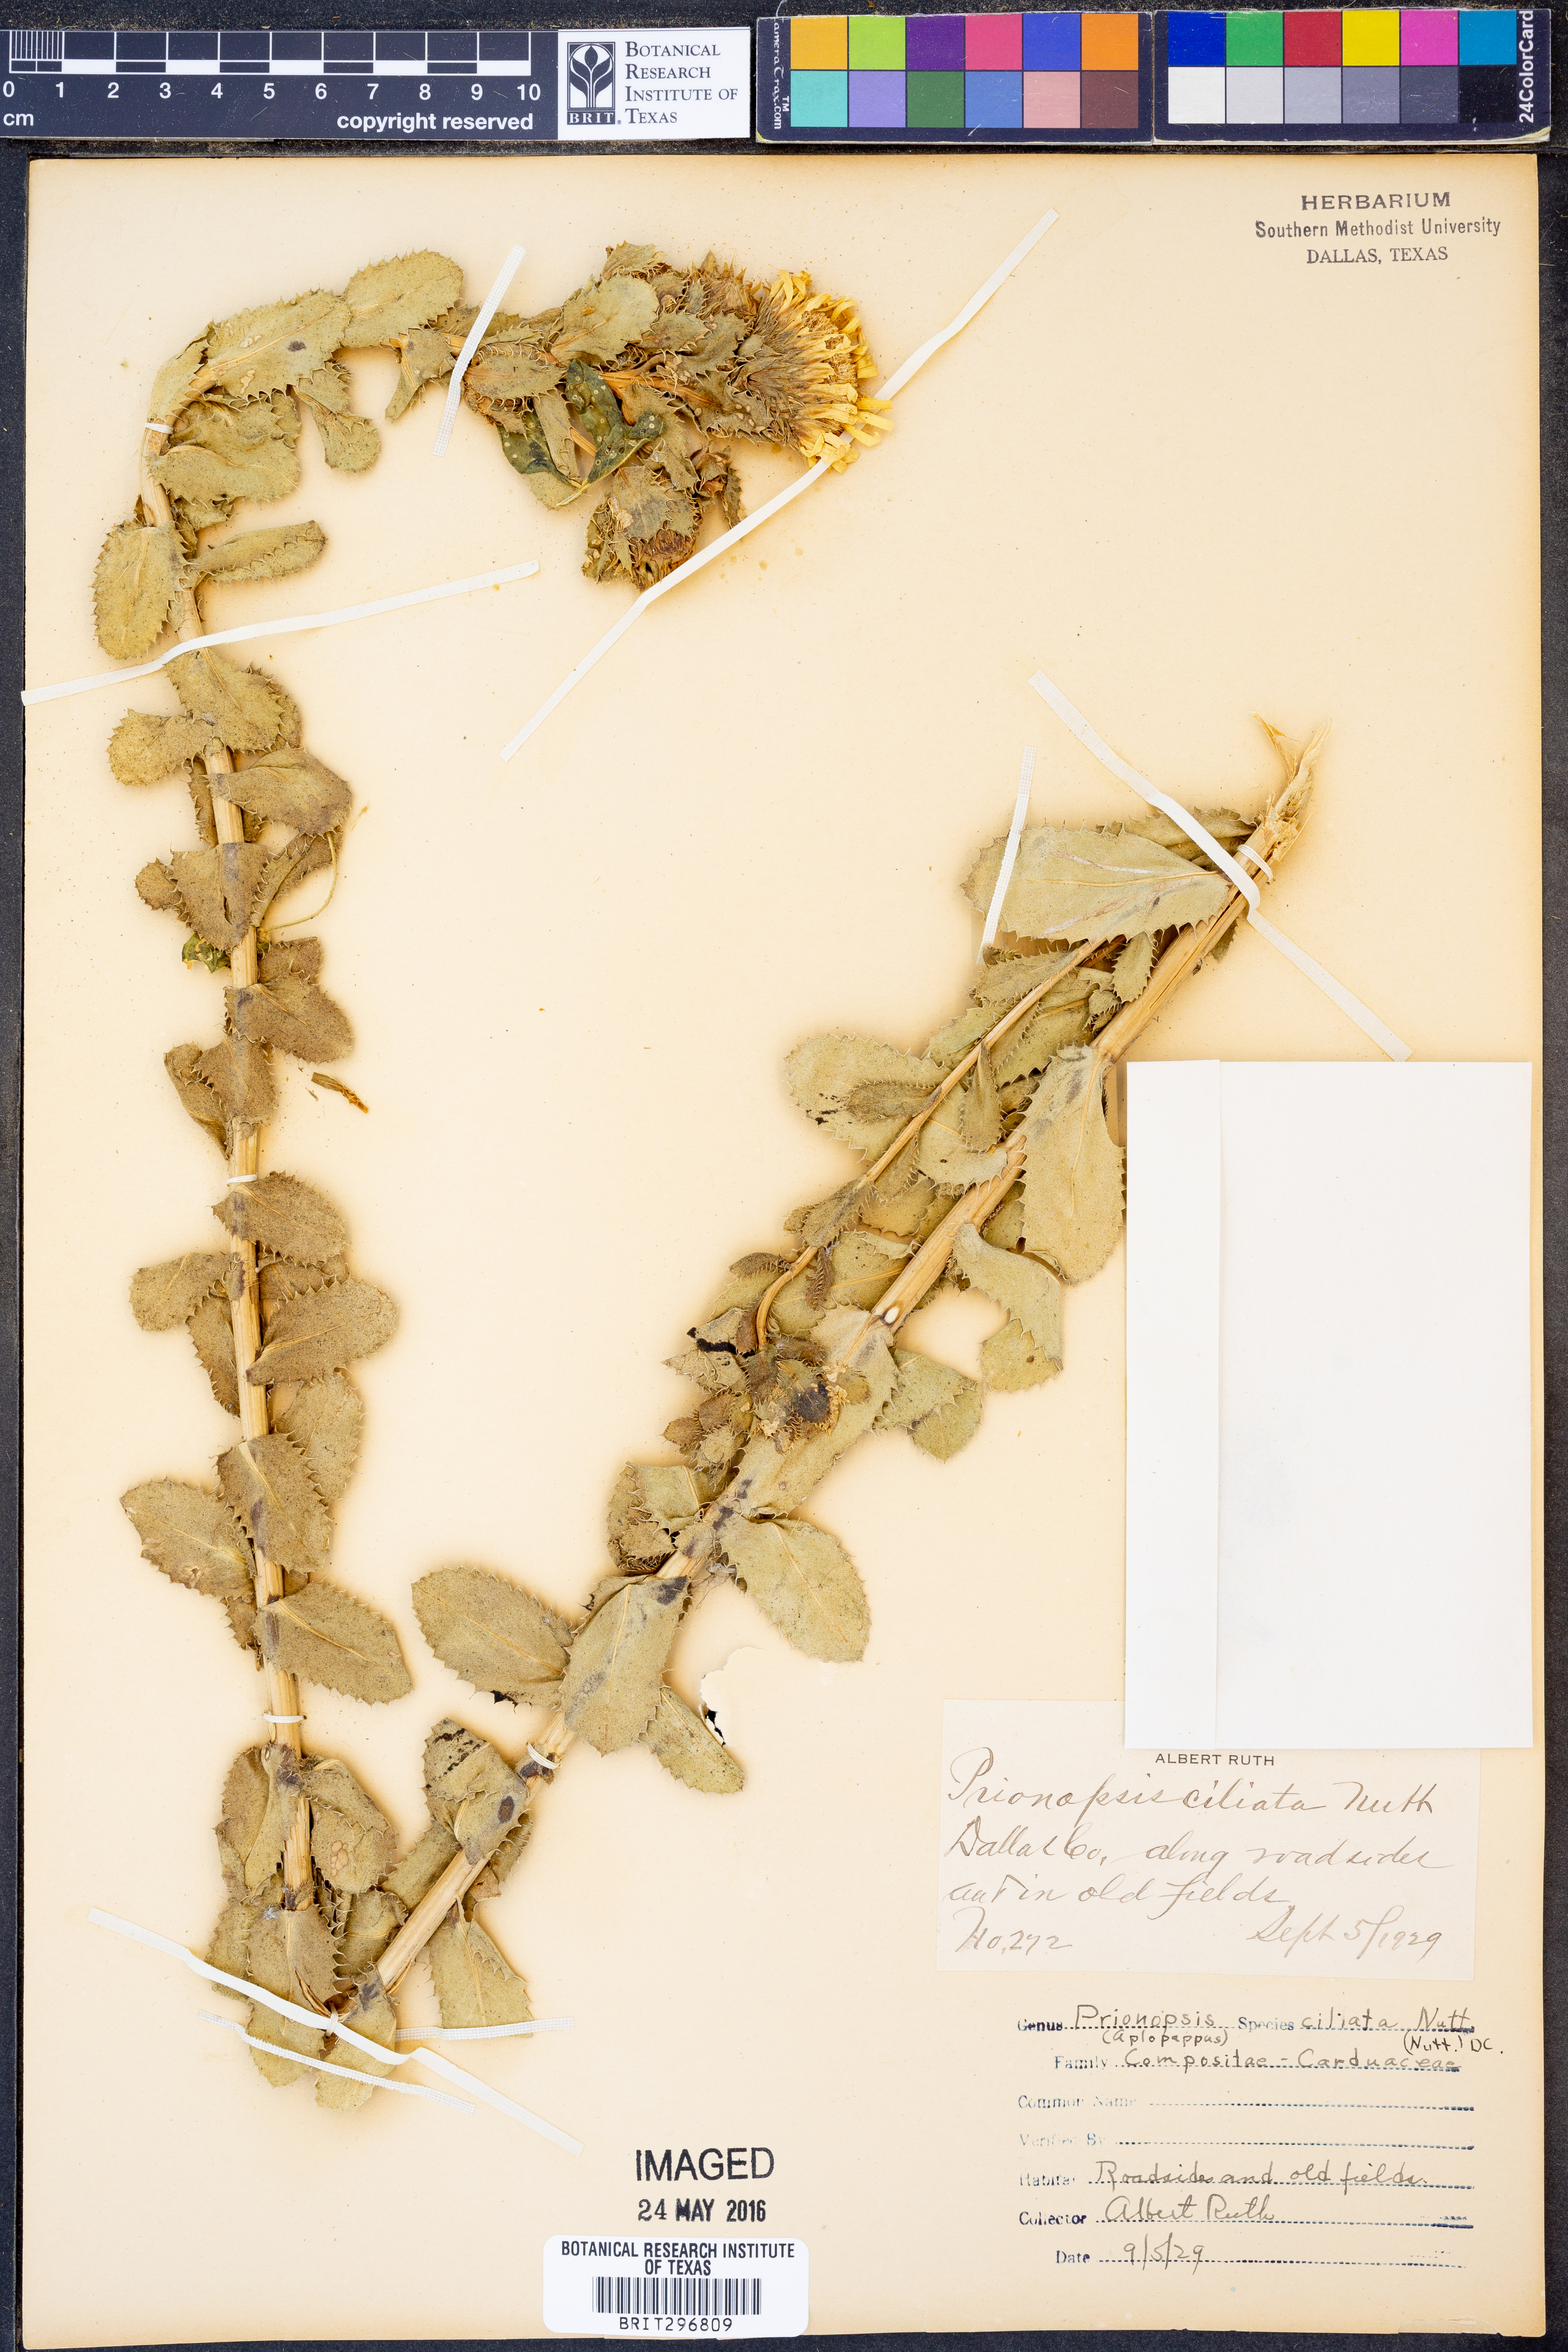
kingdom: Plantae
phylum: Tracheophyta
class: Magnoliopsida
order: Asterales
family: Asteraceae
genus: Grindelia
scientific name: Grindelia ciliata
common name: Goldenweed
